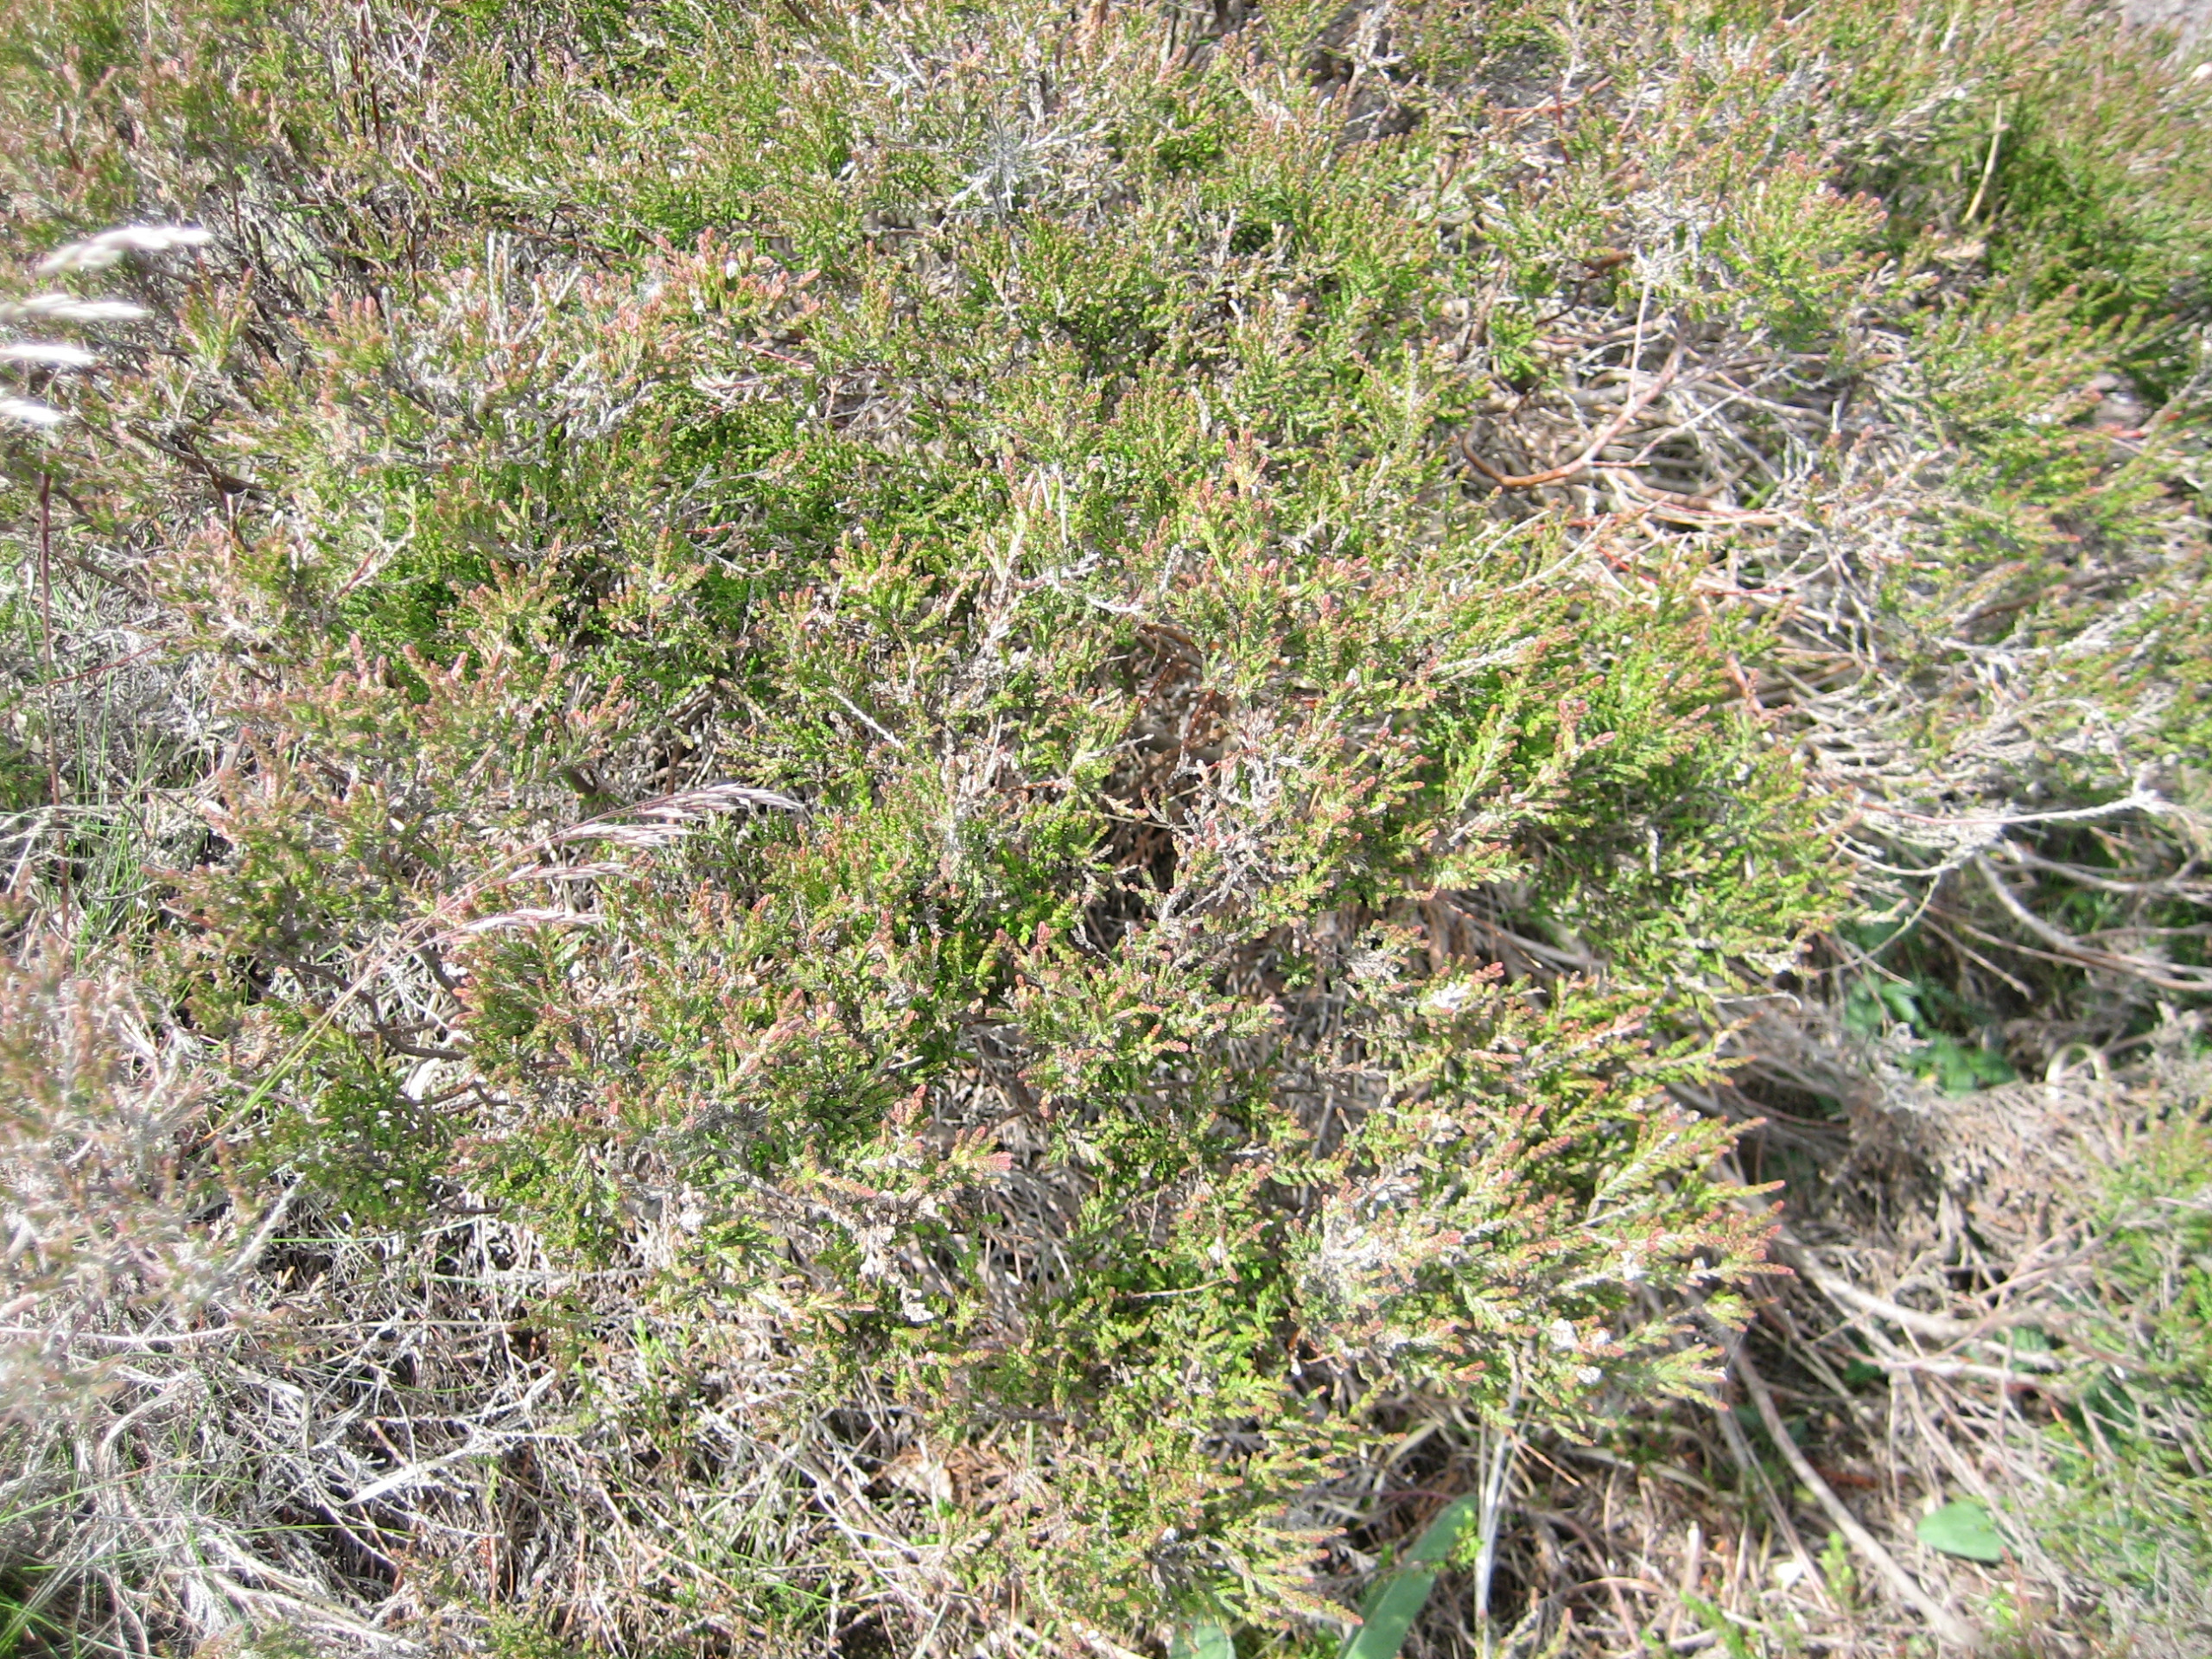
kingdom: Plantae
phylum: Tracheophyta
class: Magnoliopsida
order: Ericales
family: Ericaceae
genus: Calluna
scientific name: Calluna vulgaris
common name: Hedelyng
